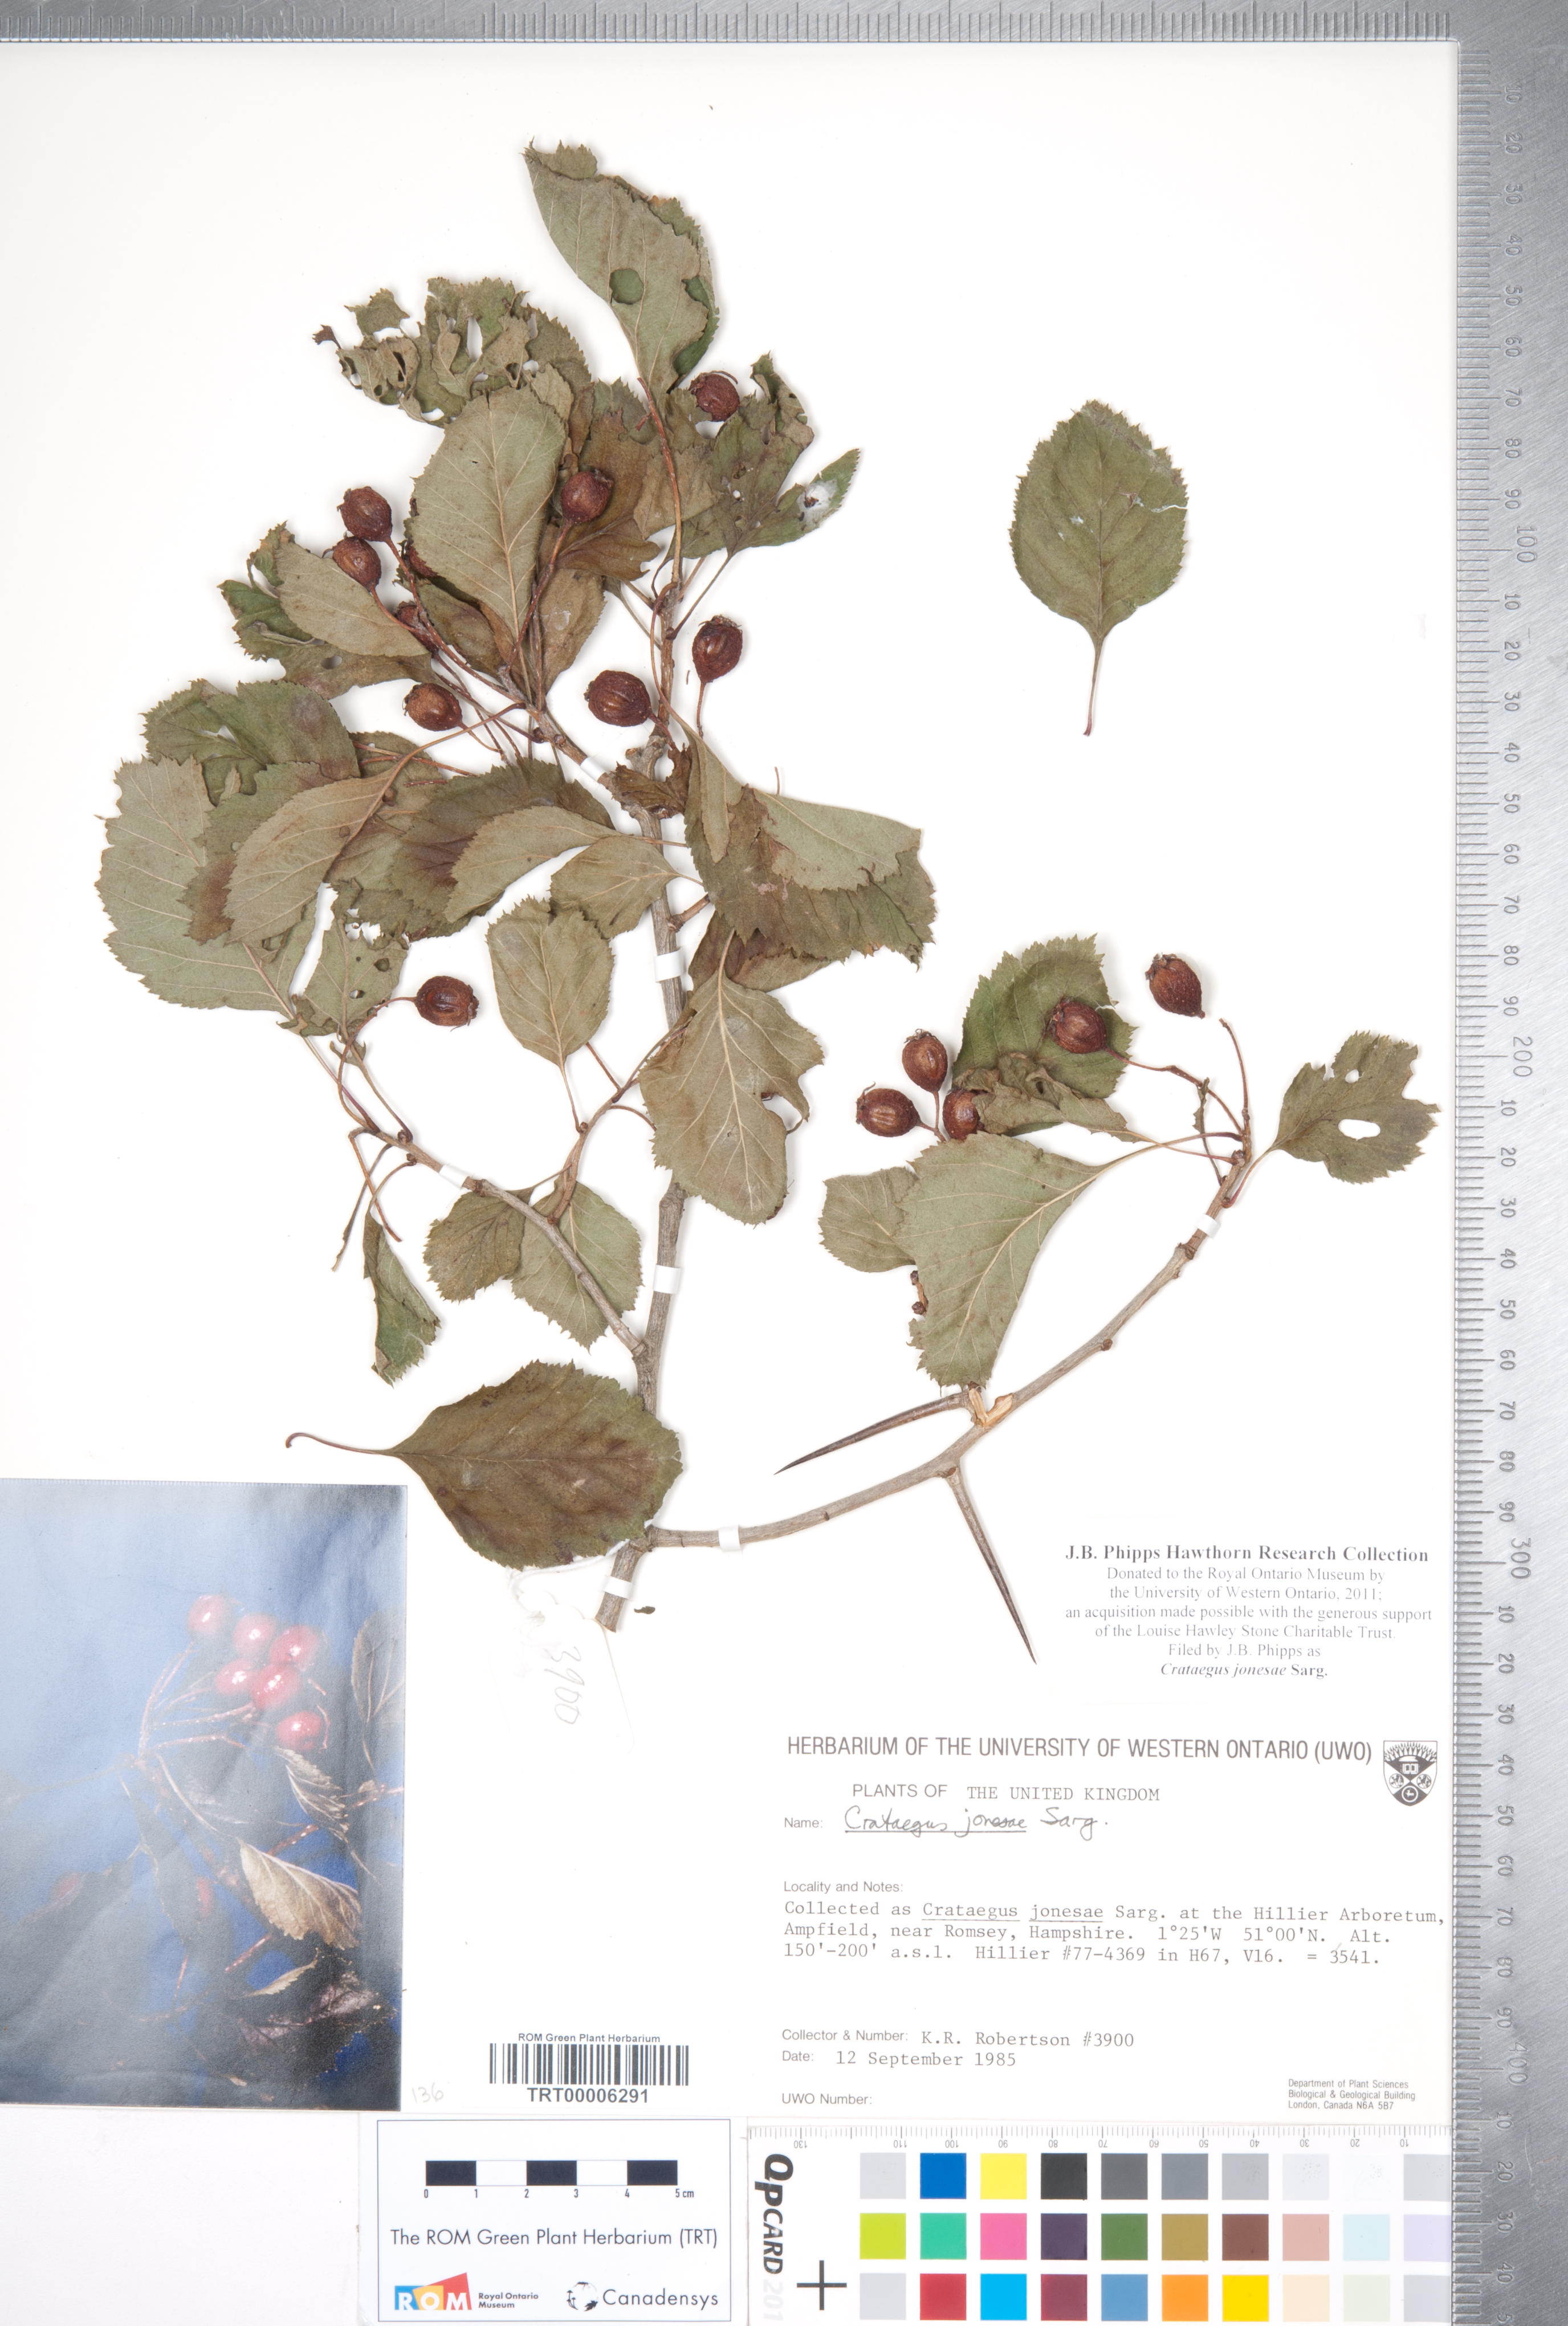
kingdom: Plantae
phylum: Tracheophyta
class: Magnoliopsida
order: Rosales
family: Rosaceae
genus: Crataegus
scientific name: Crataegus jonesae
